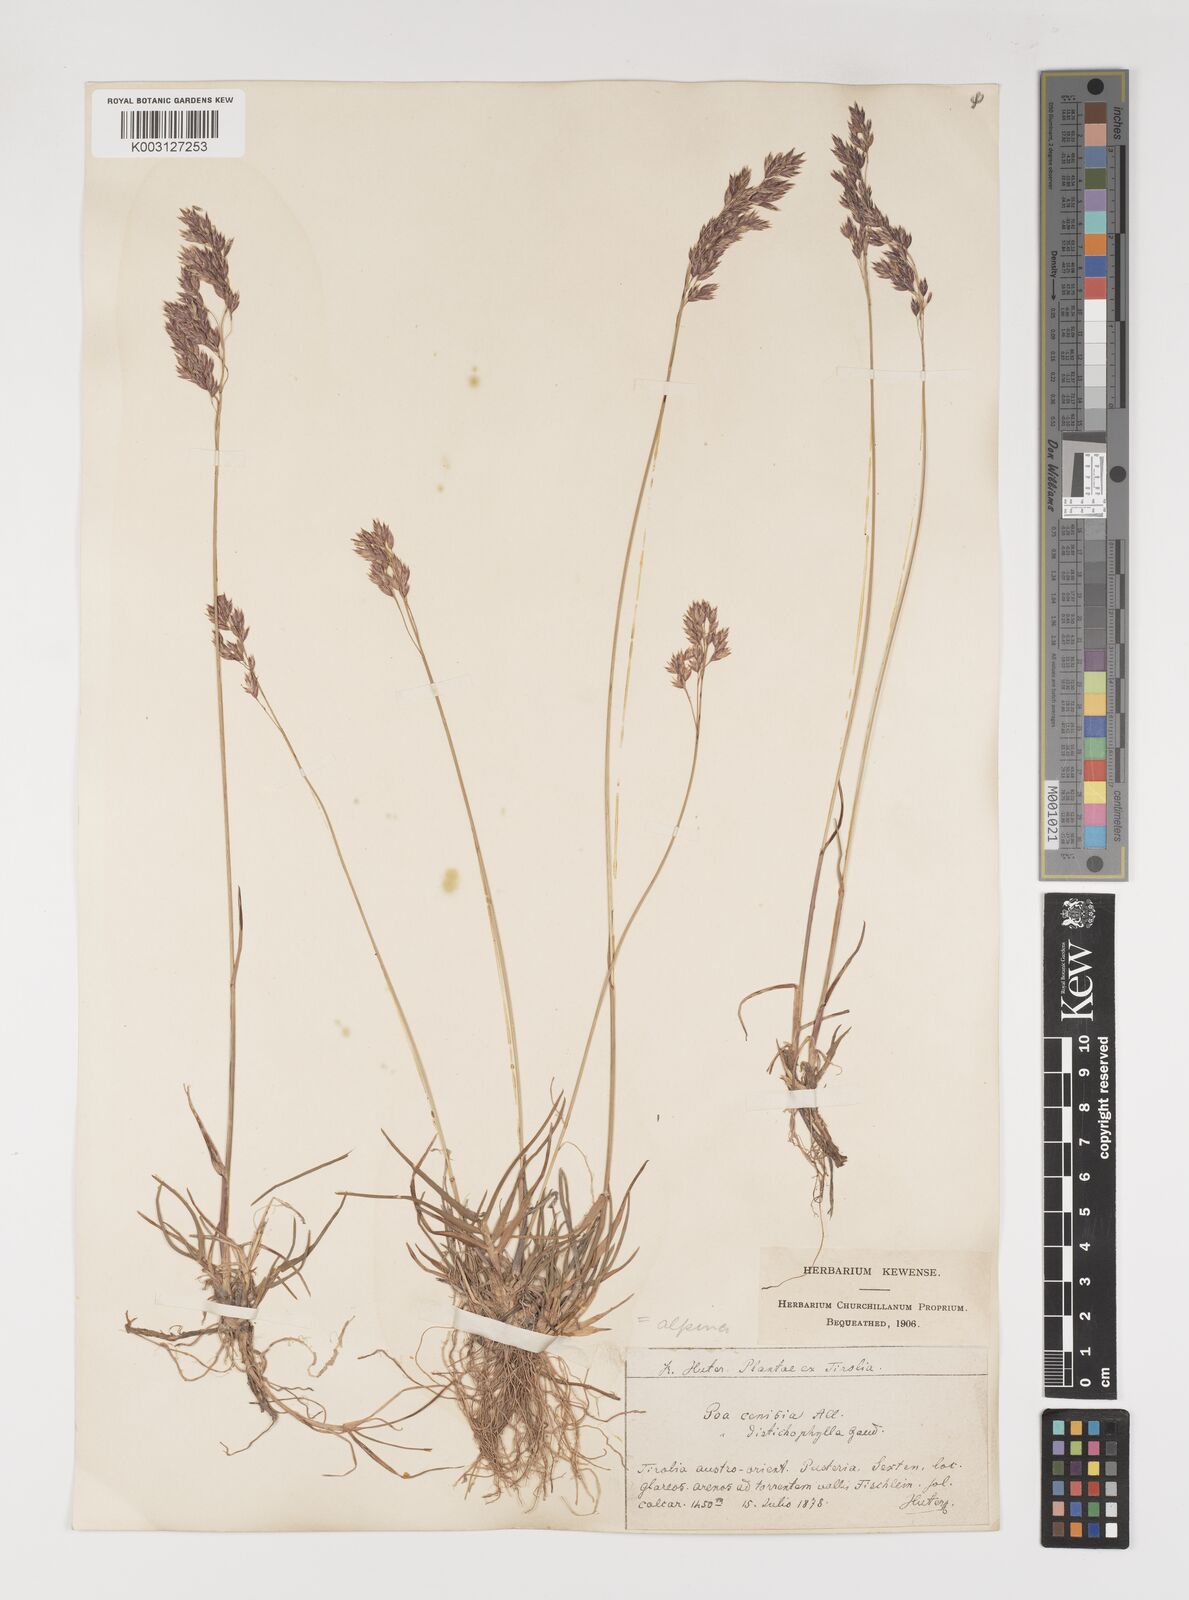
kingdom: Plantae
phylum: Tracheophyta
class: Liliopsida
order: Poales
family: Poaceae
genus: Poa
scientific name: Poa alpina
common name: Alpine bluegrass
